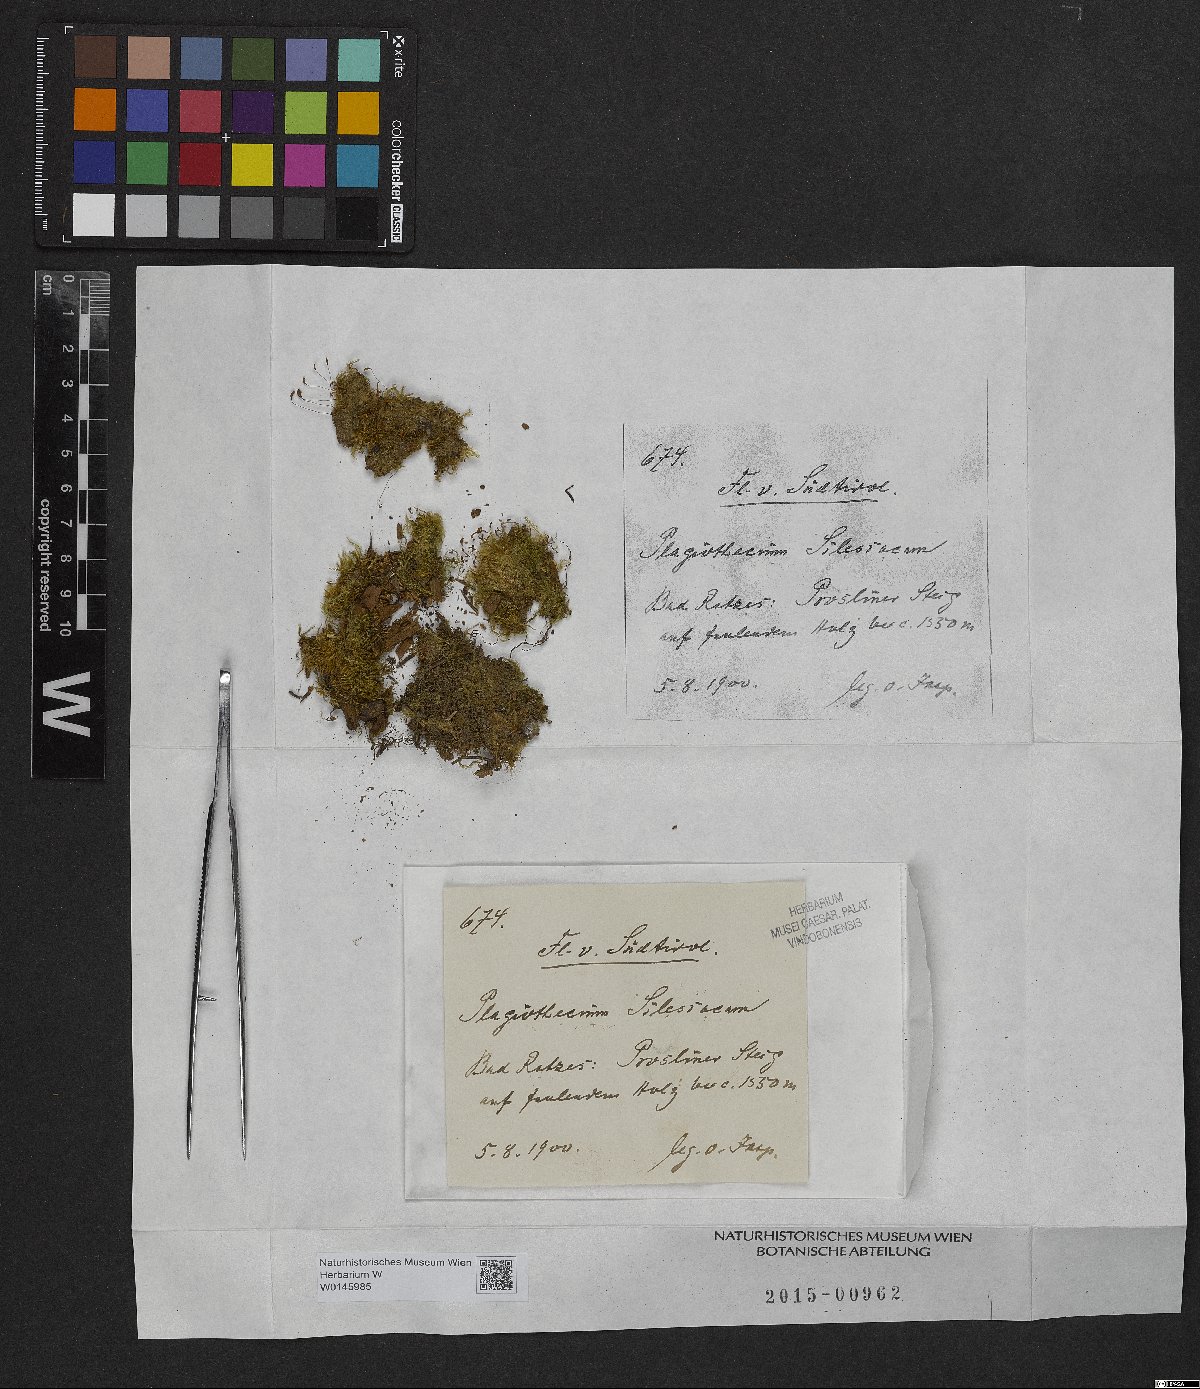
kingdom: Plantae
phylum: Bryophyta
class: Bryopsida
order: Hypnales
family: Plagiotheciaceae
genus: Herzogiella
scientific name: Herzogiella seligeri
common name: Silesian feather-moss
